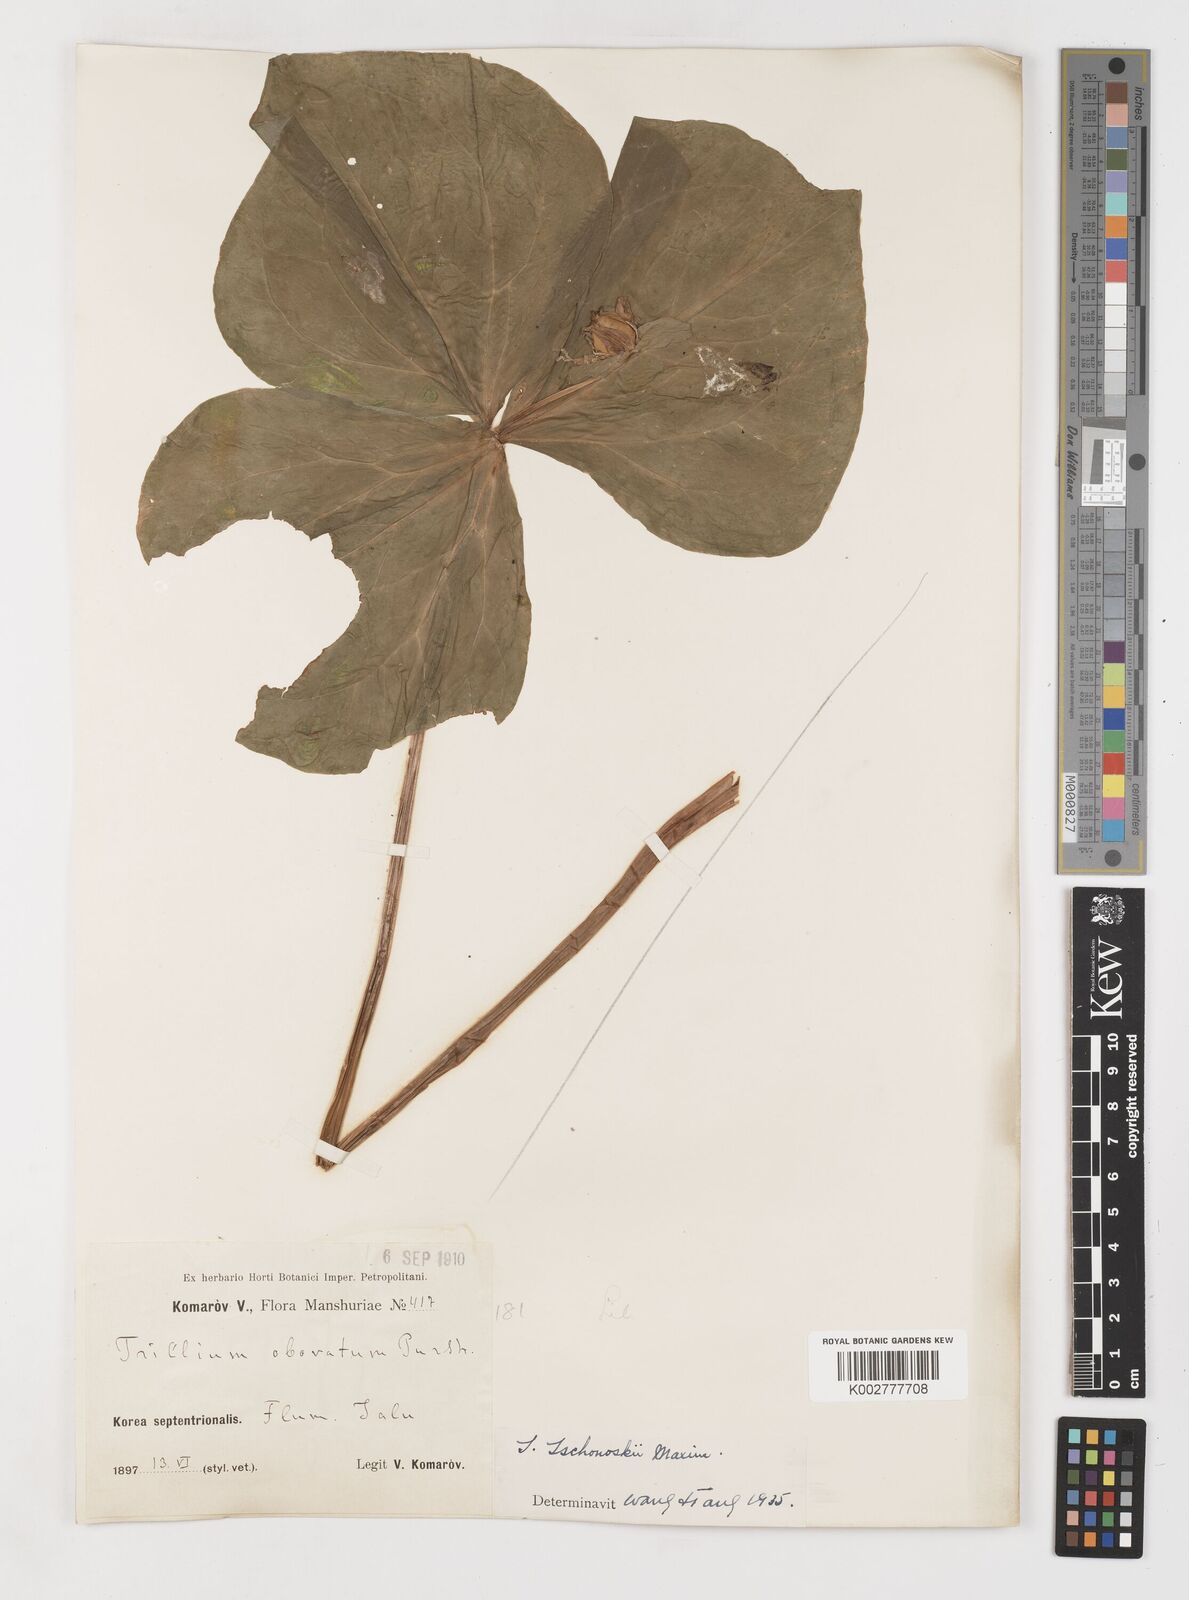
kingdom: Plantae
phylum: Tracheophyta
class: Liliopsida
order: Liliales
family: Melanthiaceae
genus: Trillium
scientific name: Trillium tschonoskii
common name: A pearl on head
